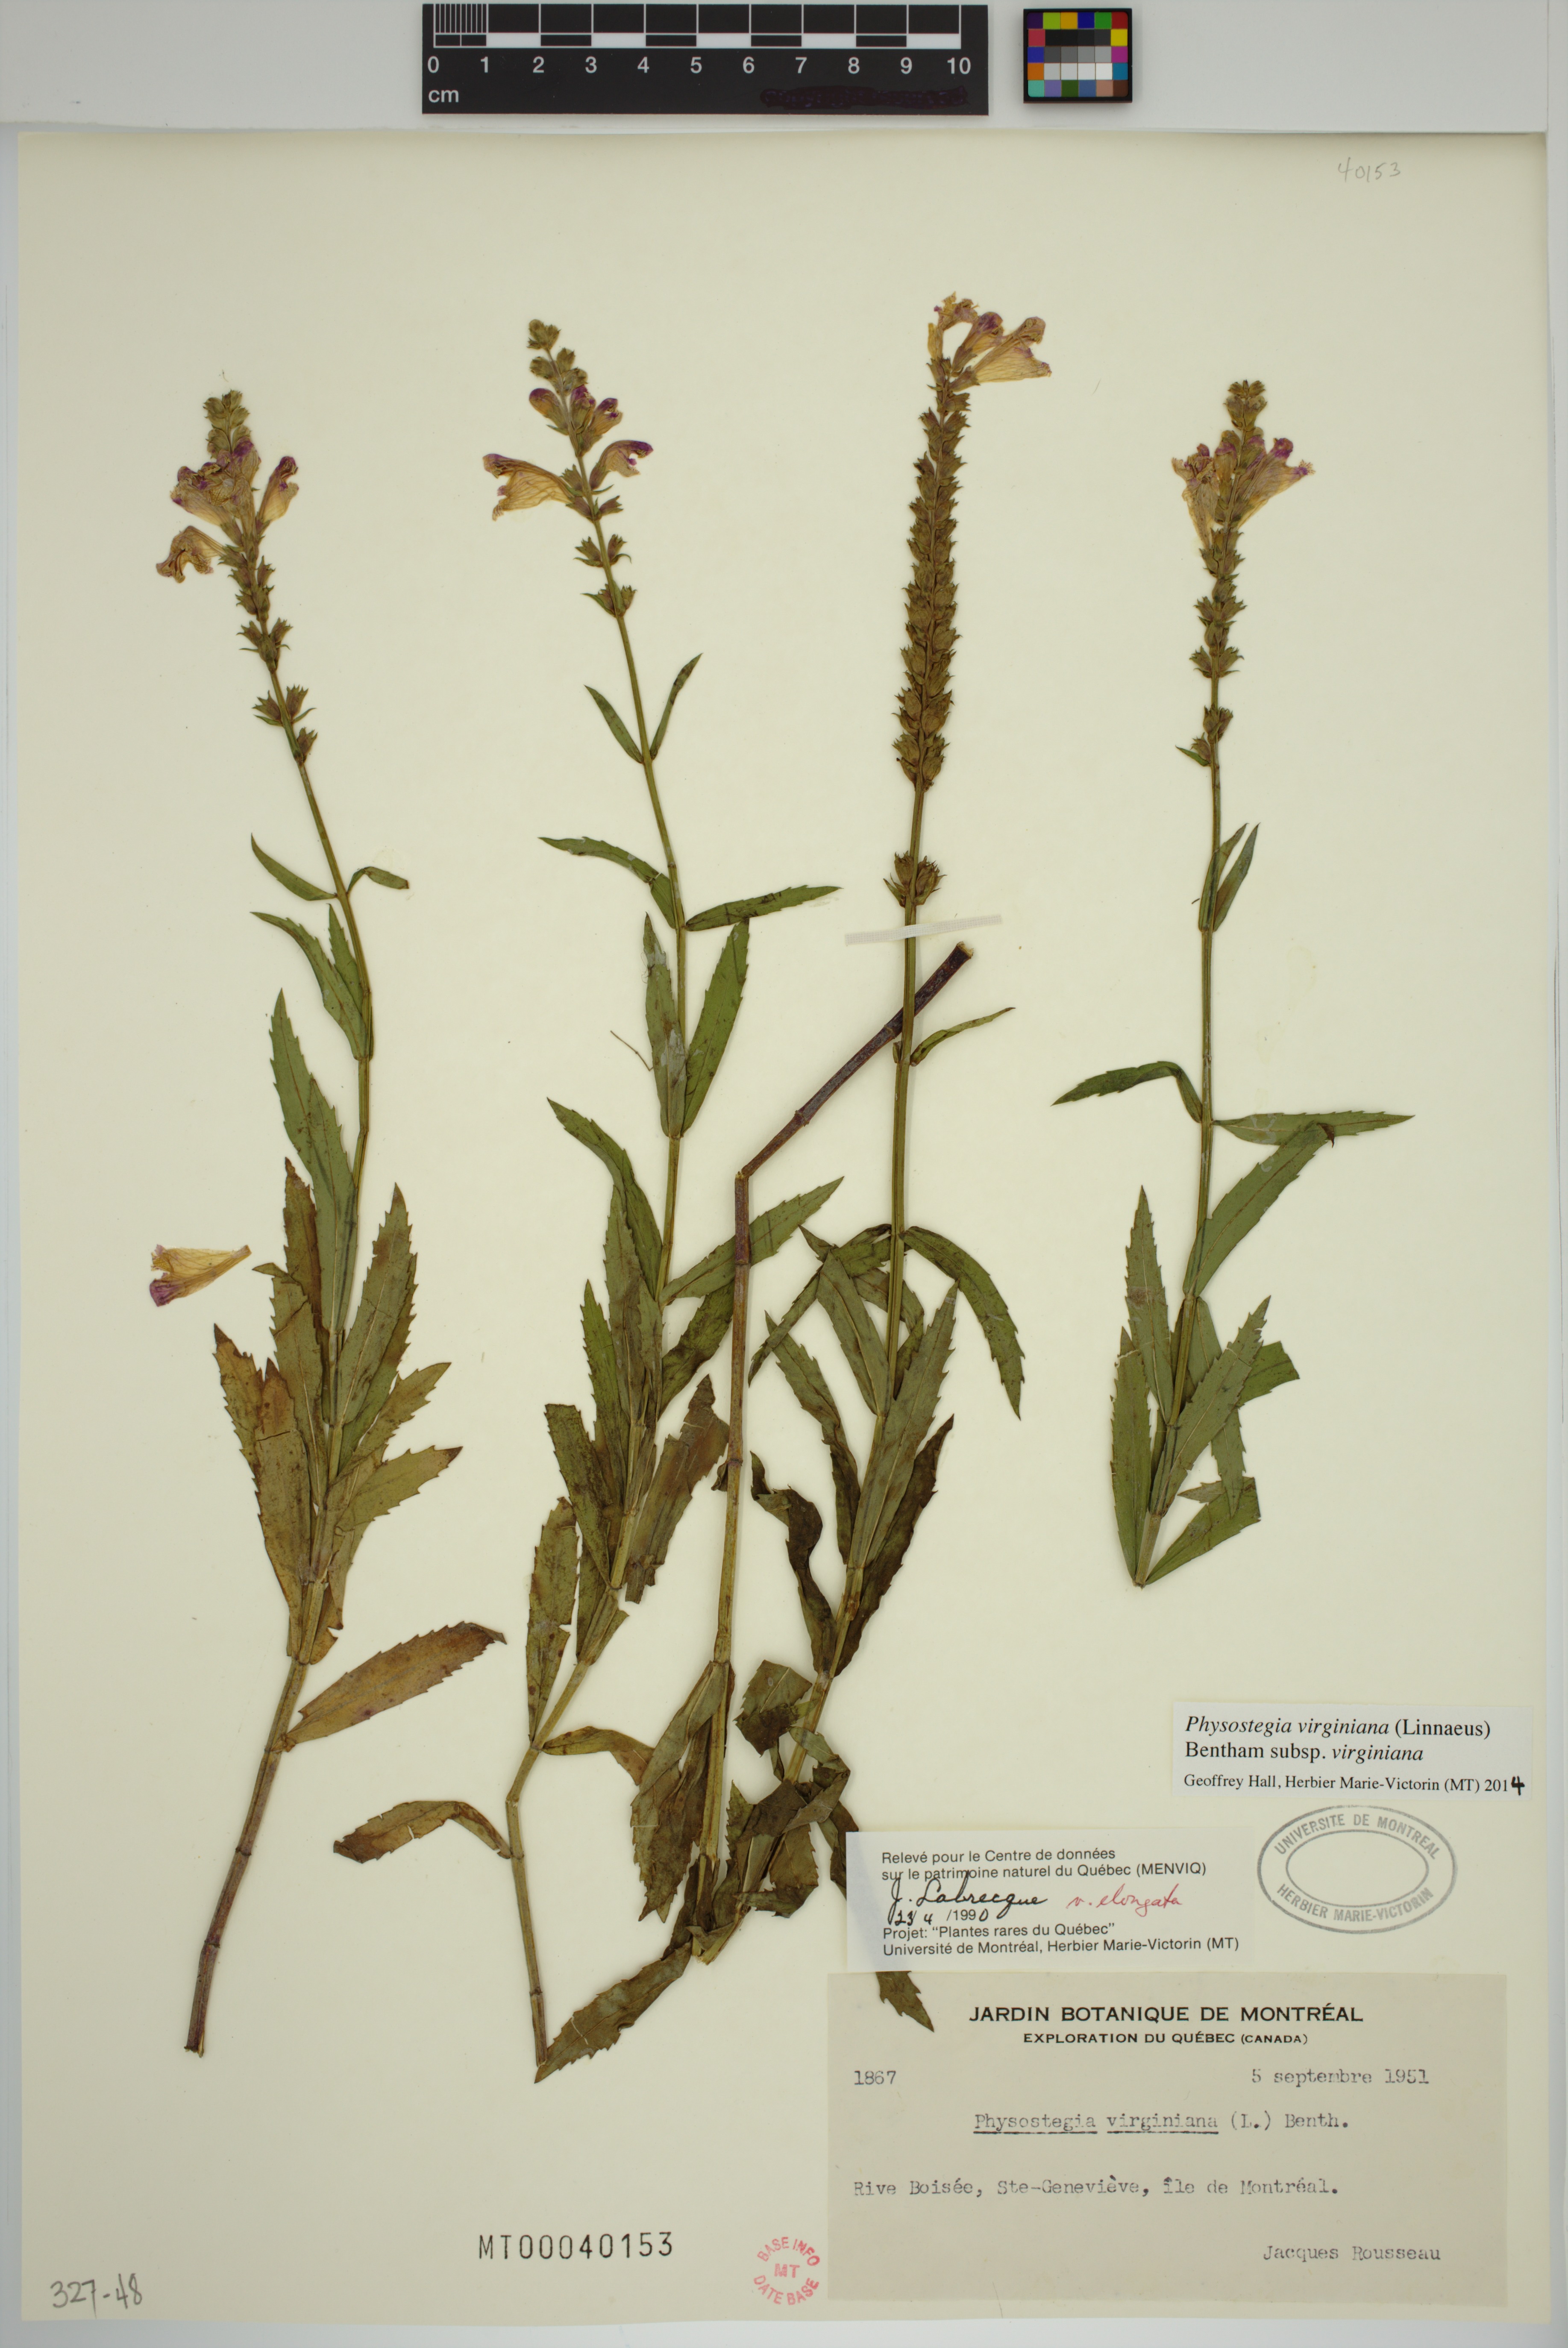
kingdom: Plantae
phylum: Tracheophyta
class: Magnoliopsida
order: Lamiales
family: Lamiaceae
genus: Physostegia
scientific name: Physostegia virginiana
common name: Obedient-plant
